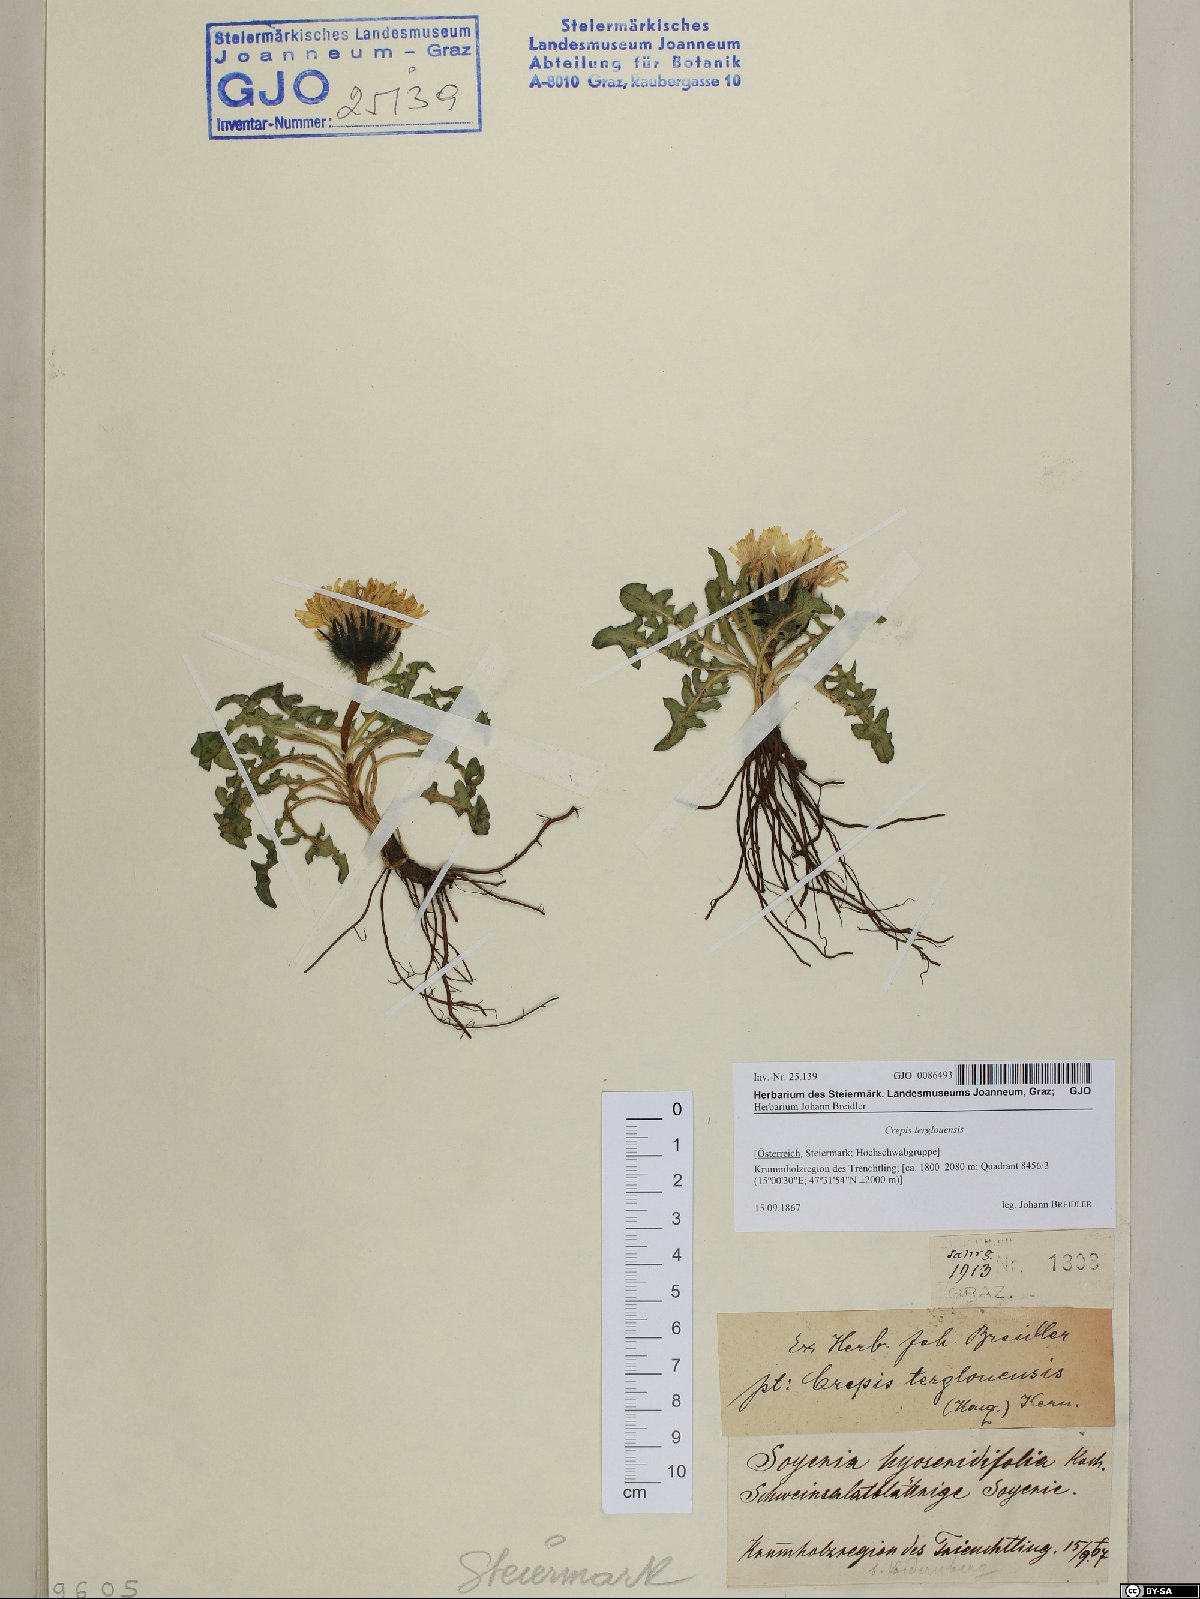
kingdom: Plantae
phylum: Tracheophyta
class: Magnoliopsida
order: Asterales
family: Asteraceae
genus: Crepis
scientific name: Crepis terglouensis
